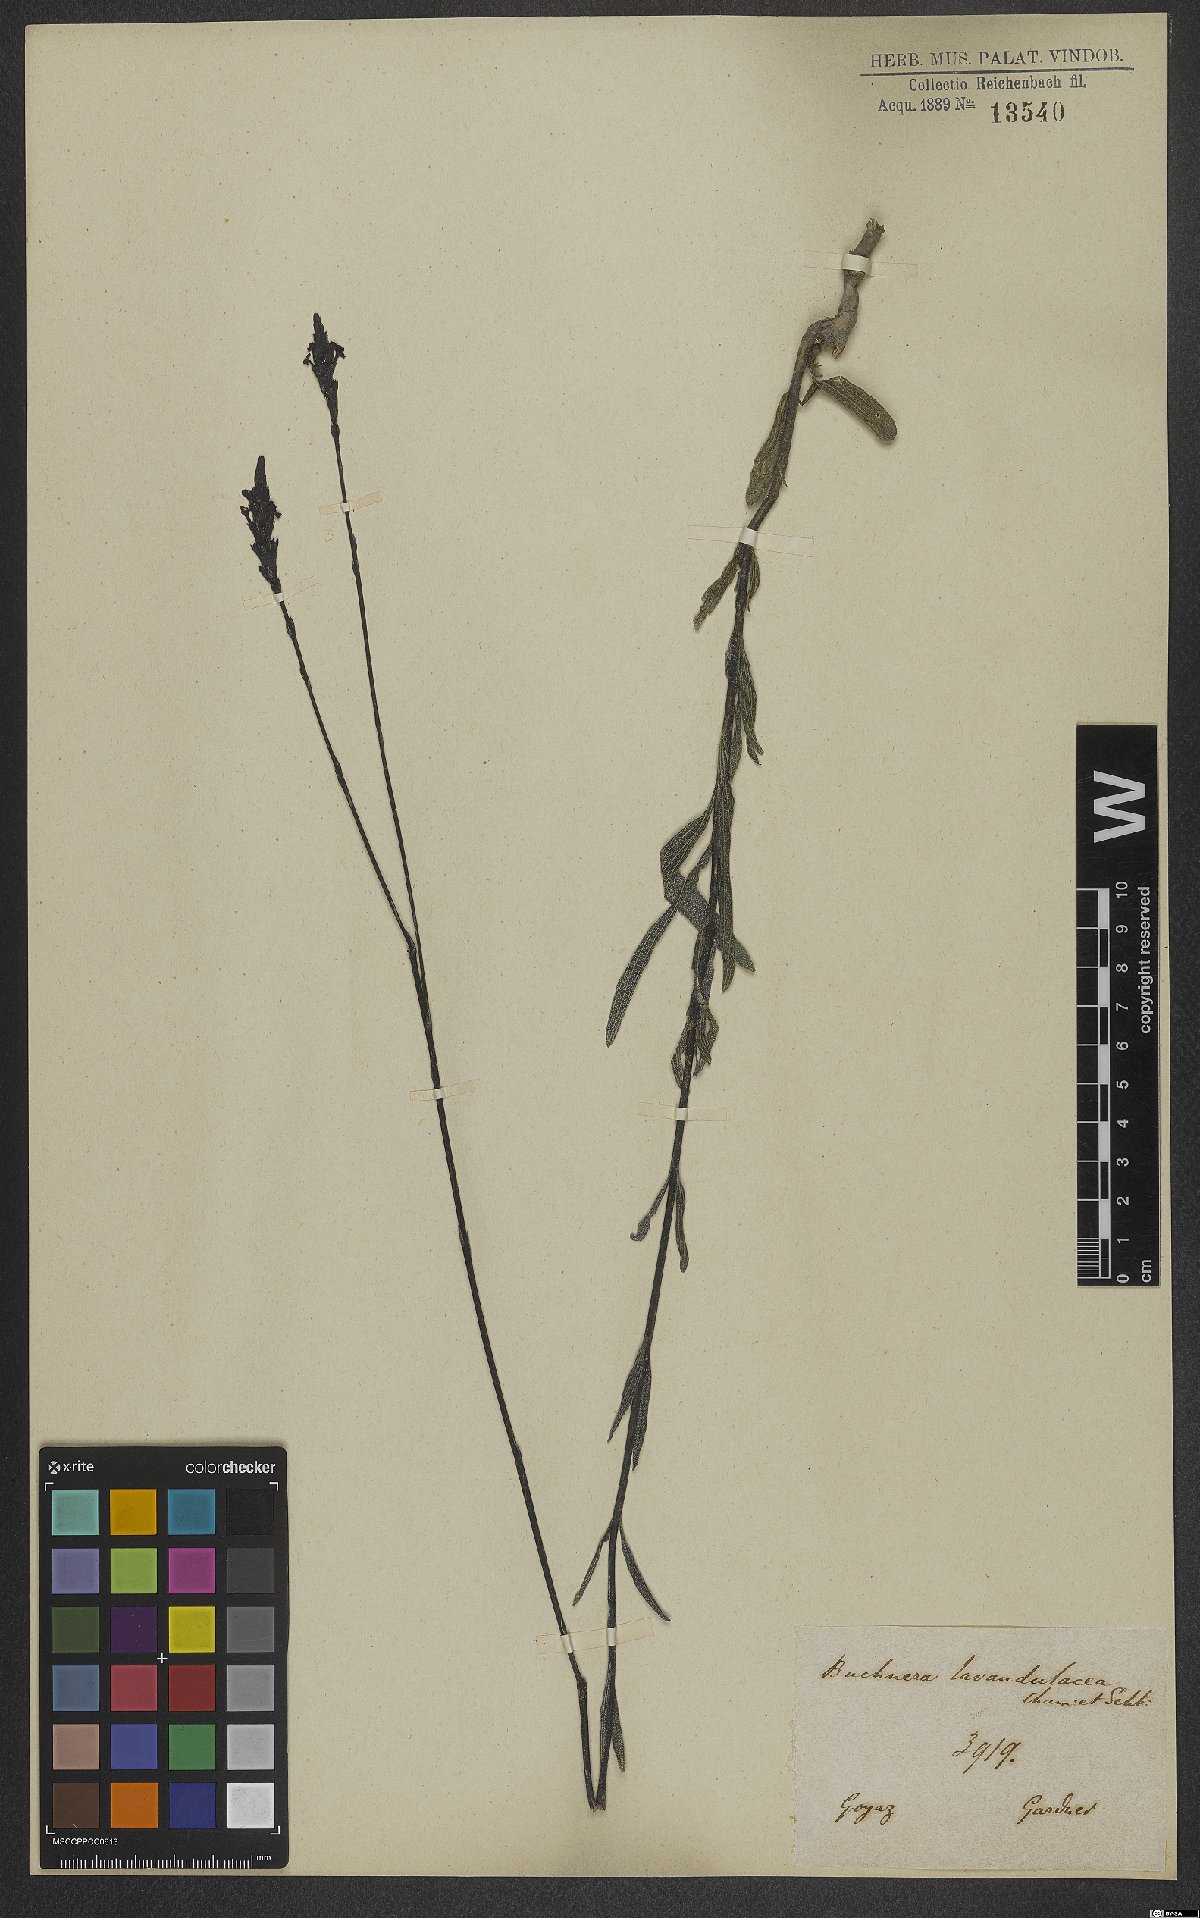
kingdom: Plantae
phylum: Tracheophyta
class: Magnoliopsida
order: Lamiales
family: Orobanchaceae
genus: Buchnera
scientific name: Buchnera lavandulacea
